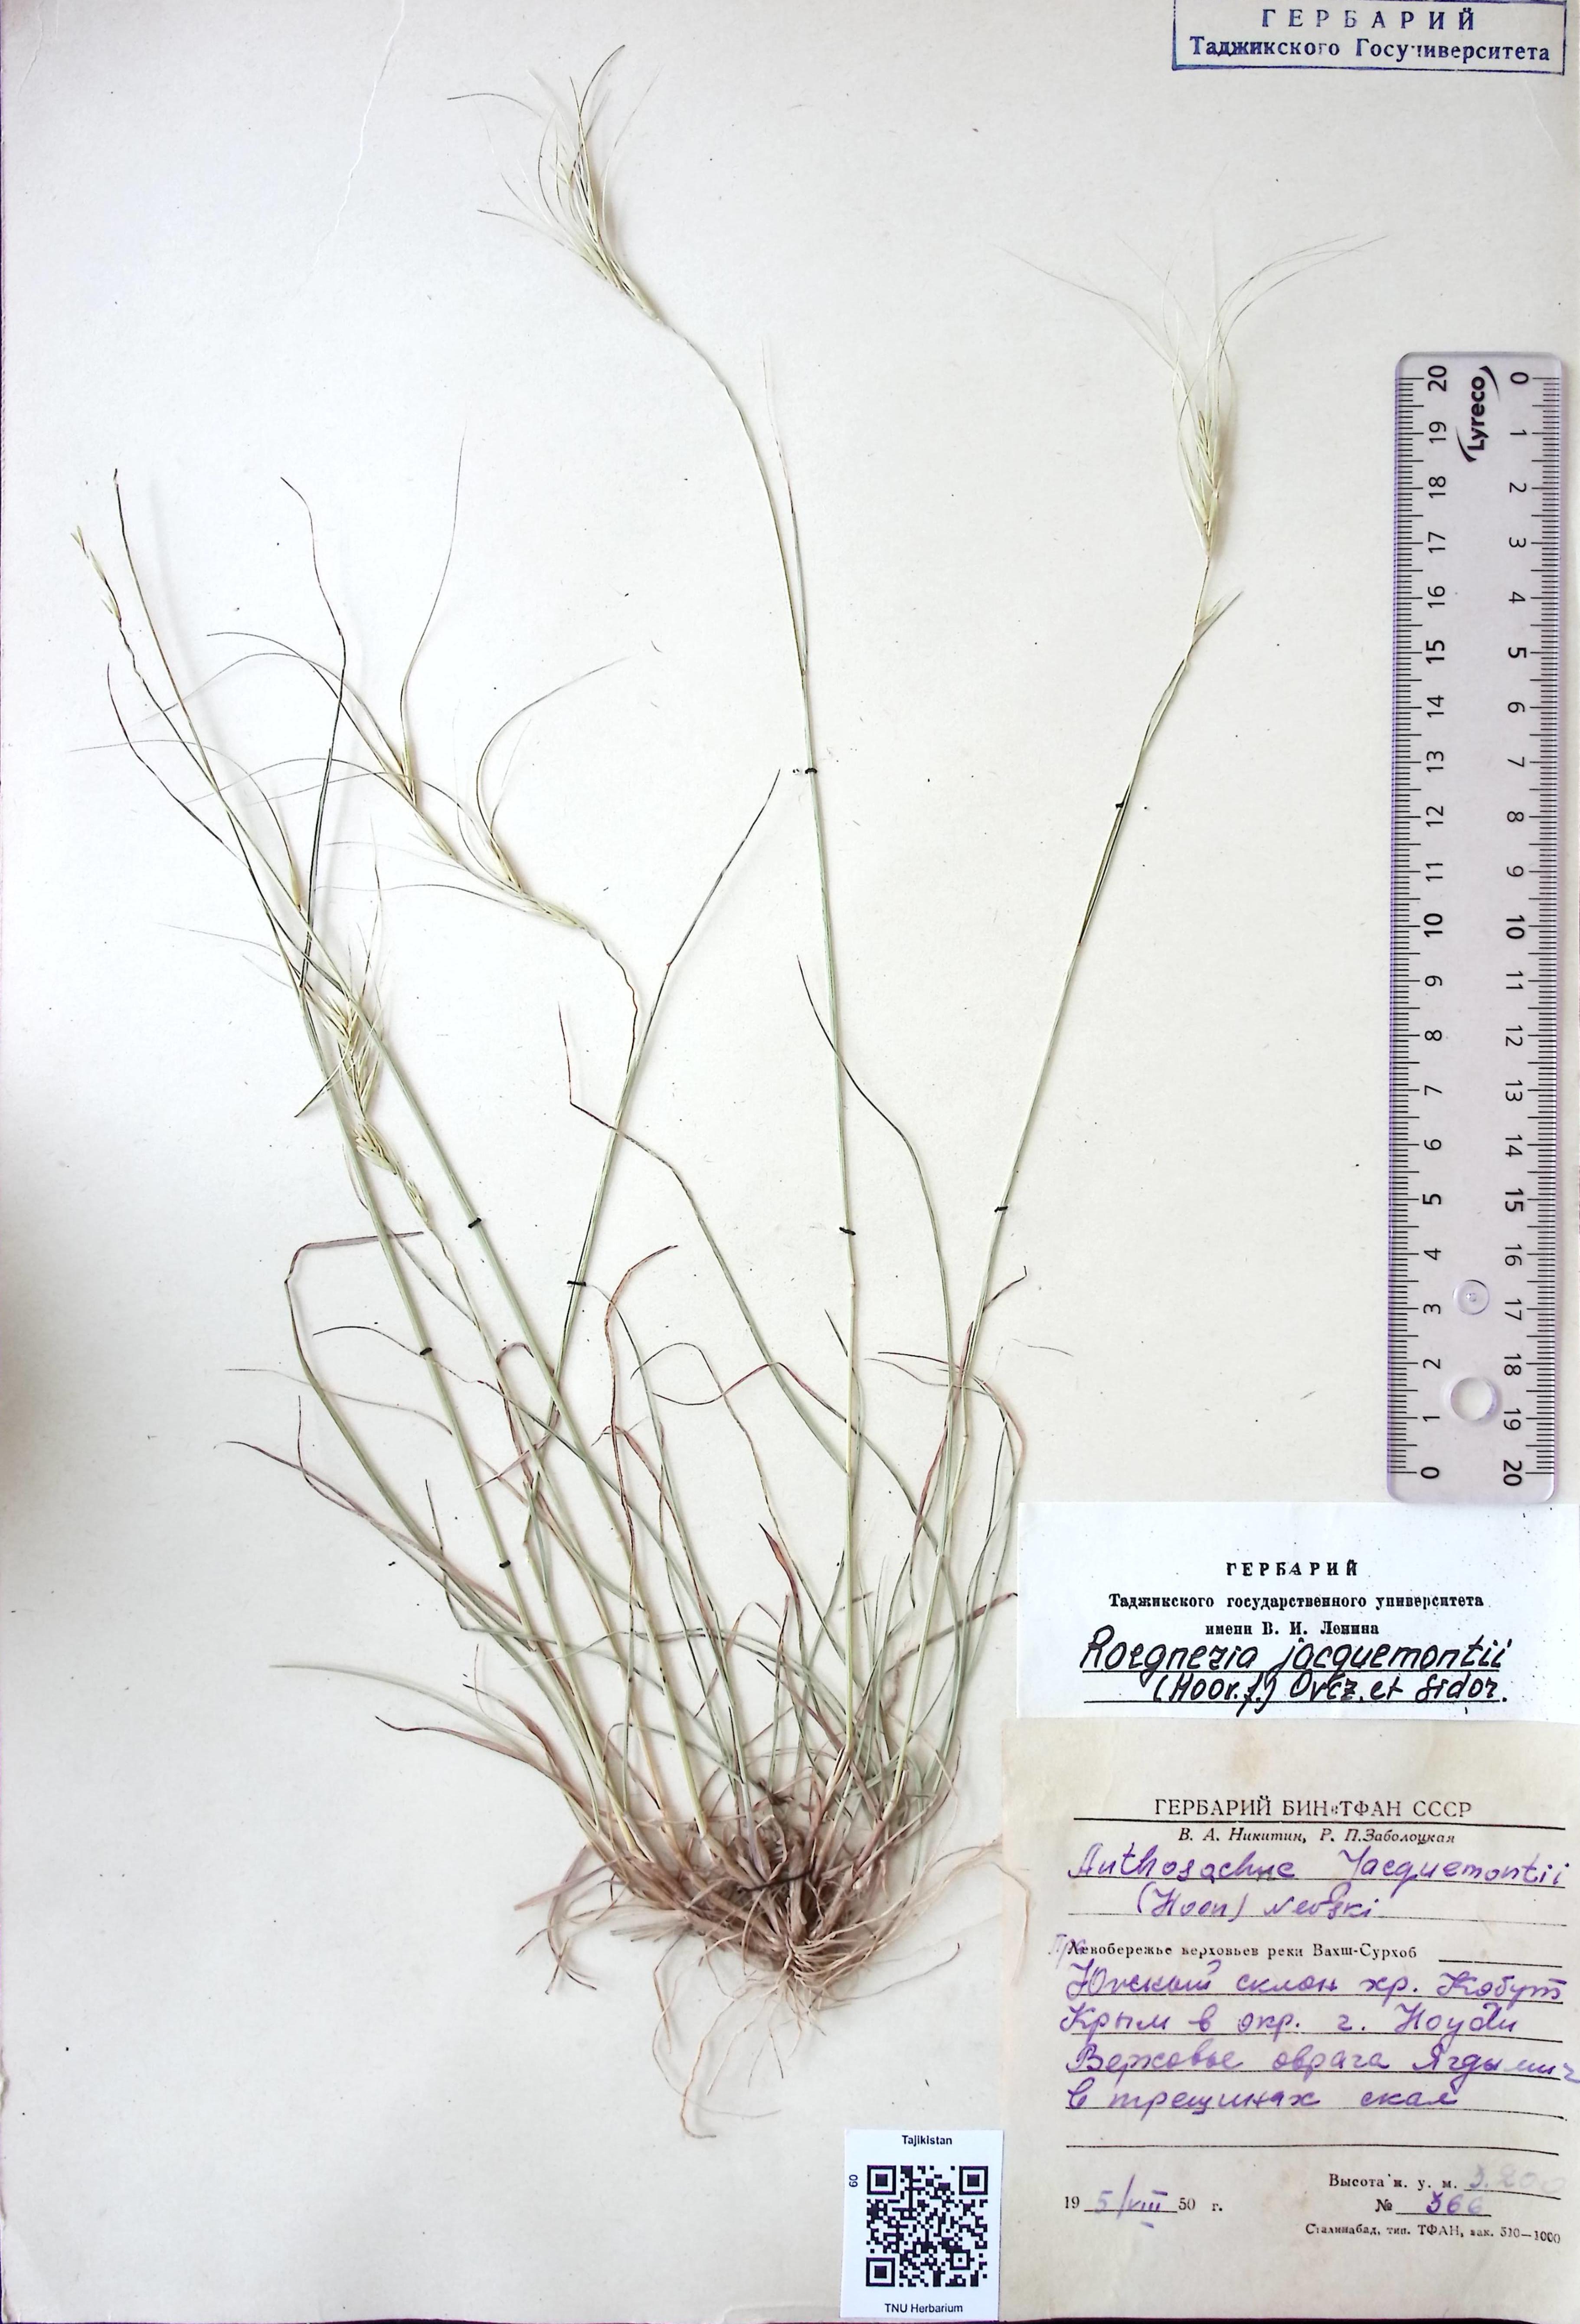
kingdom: Plantae
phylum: Tracheophyta
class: Liliopsida
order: Poales
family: Poaceae
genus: Elymus
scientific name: Elymus jacquemontii
